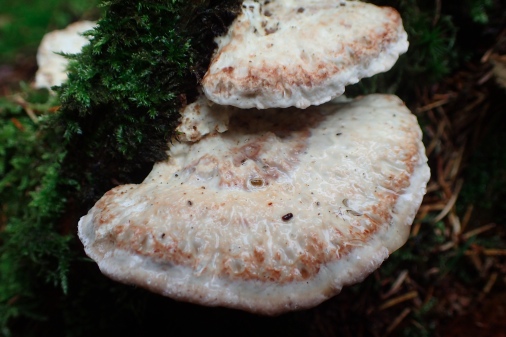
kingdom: Fungi
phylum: Basidiomycota
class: Agaricomycetes
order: Polyporales
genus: Calcipostia
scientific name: Calcipostia guttulata
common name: dråbe-kødporesvamp
